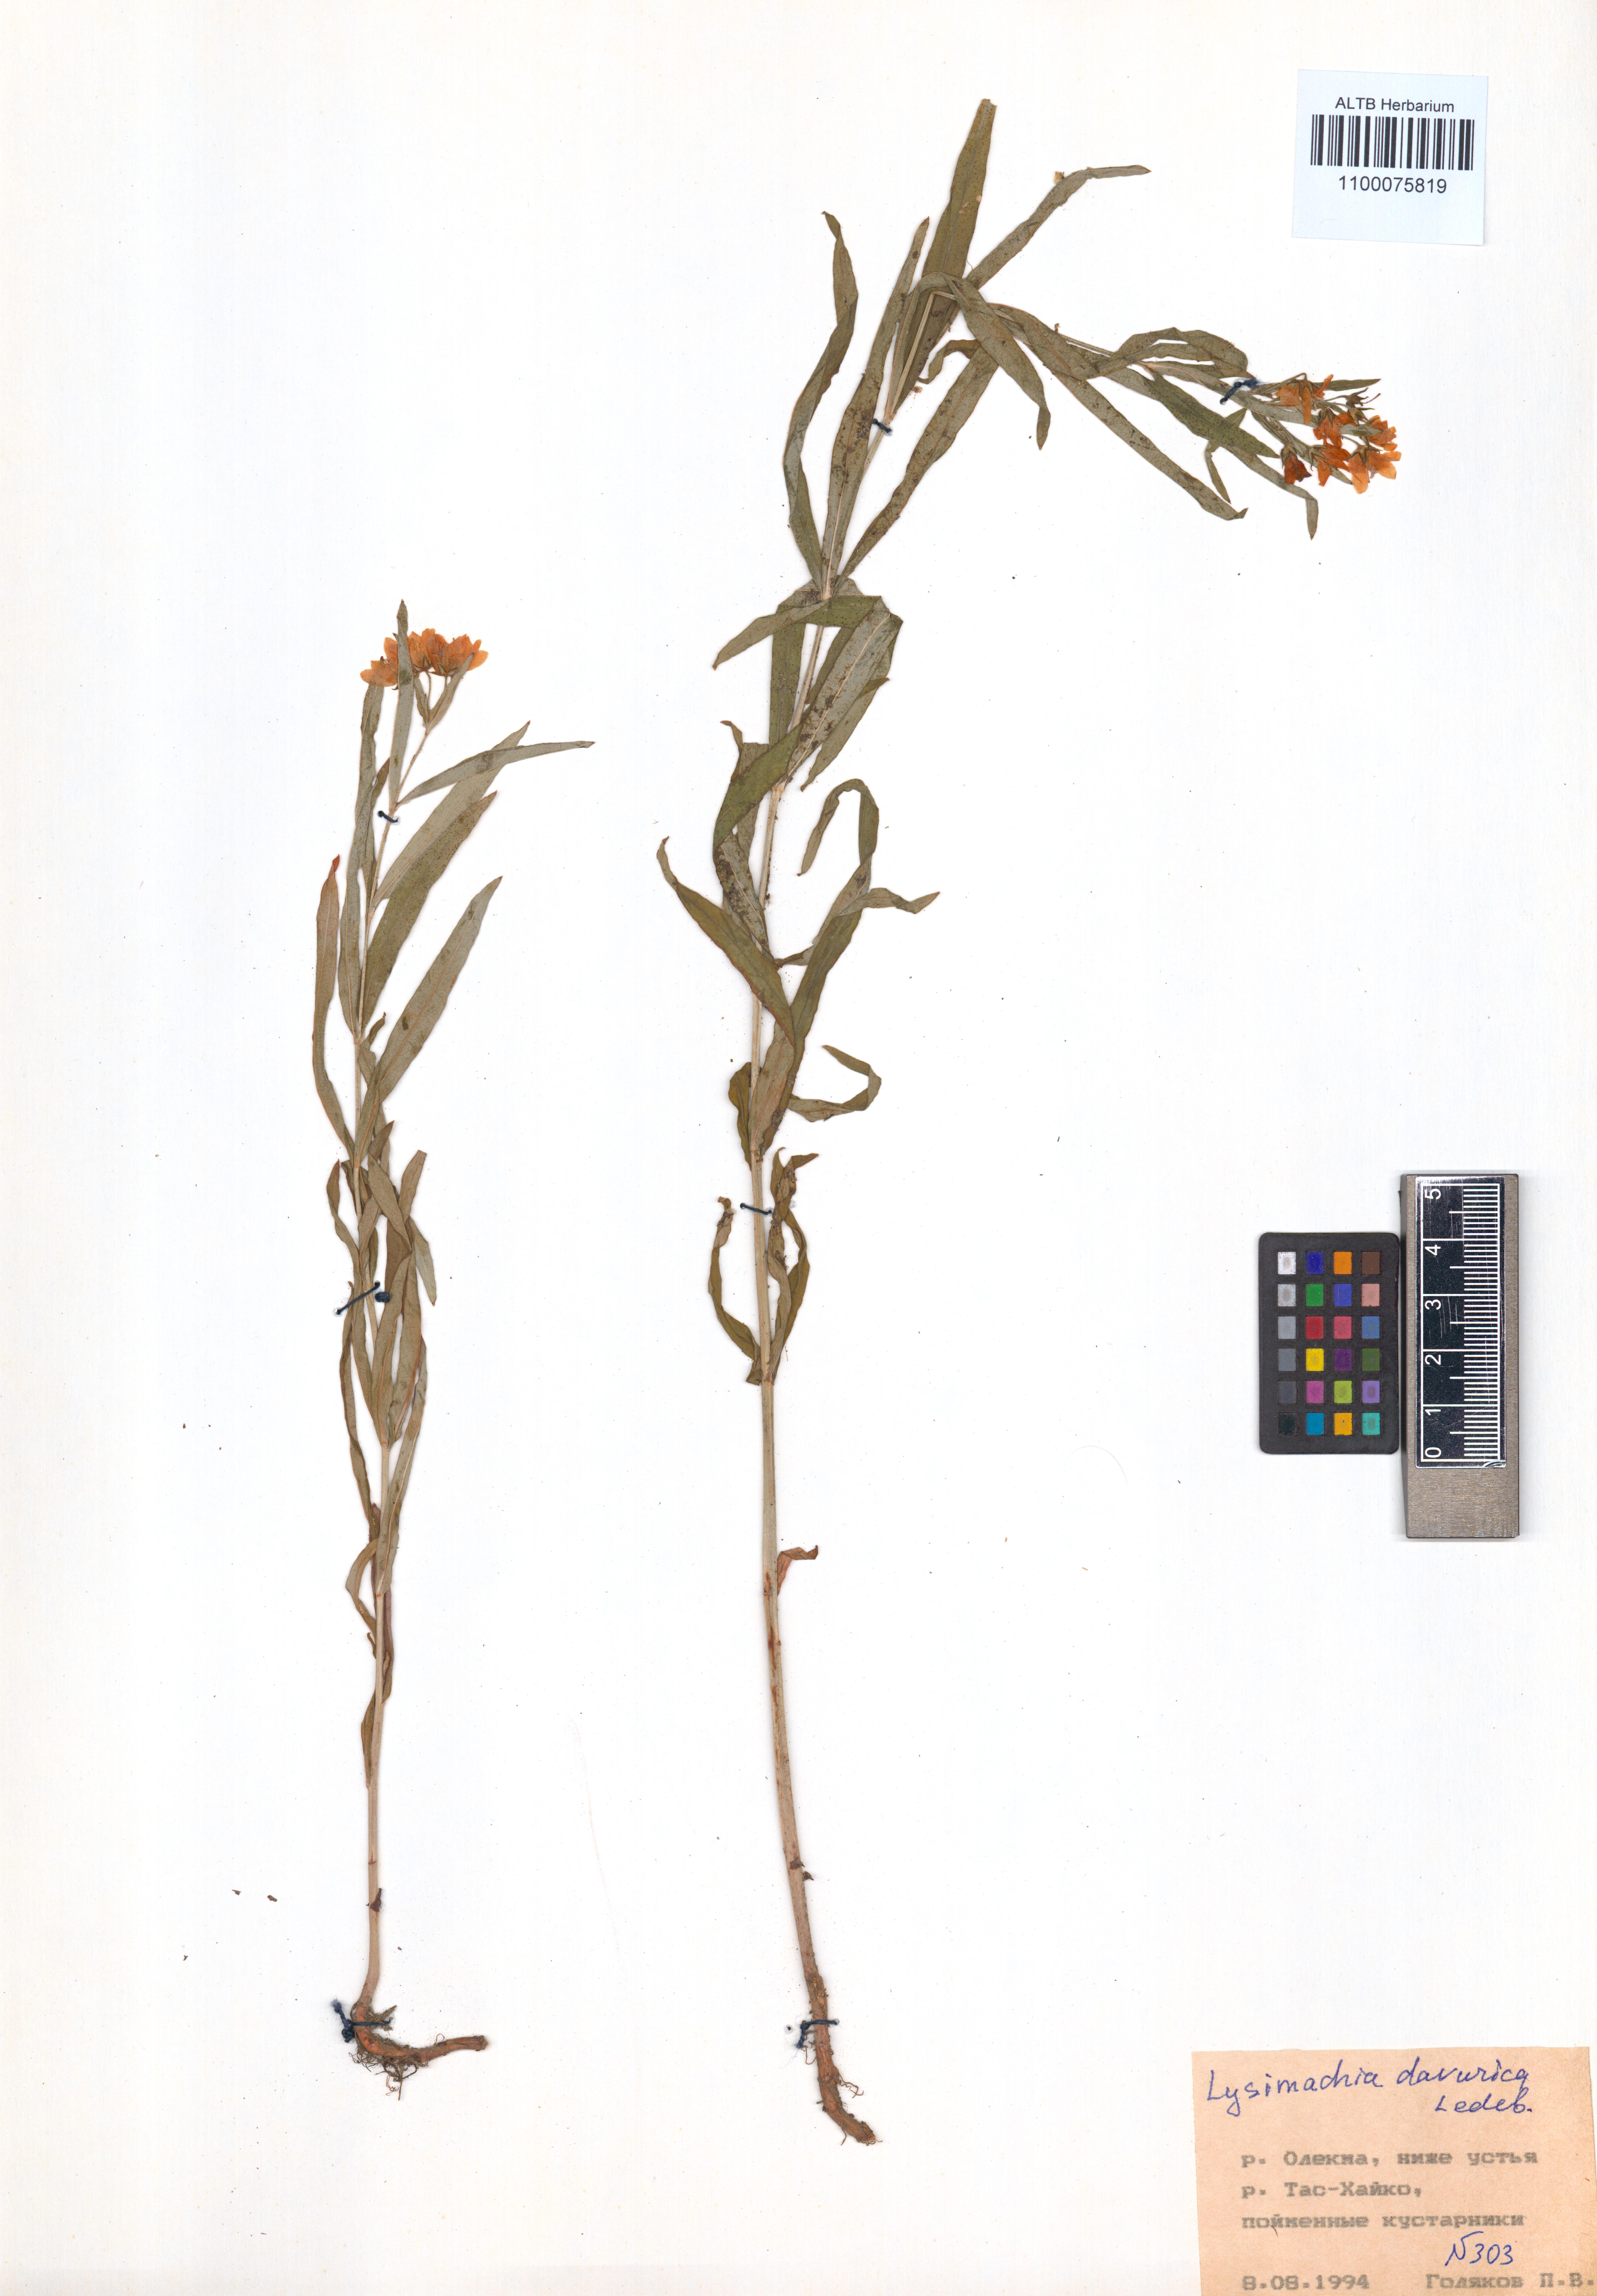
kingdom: Plantae
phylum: Tracheophyta
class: Magnoliopsida
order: Ericales
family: Primulaceae
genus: Lysimachia
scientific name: Lysimachia davurica
